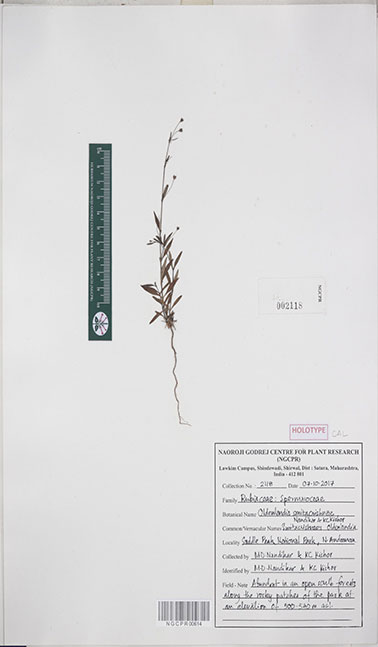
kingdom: Plantae
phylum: Tracheophyta
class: Magnoliopsida
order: Gentianales
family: Rubiaceae
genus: Oldenlandia
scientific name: Oldenlandia smitacrishnae
